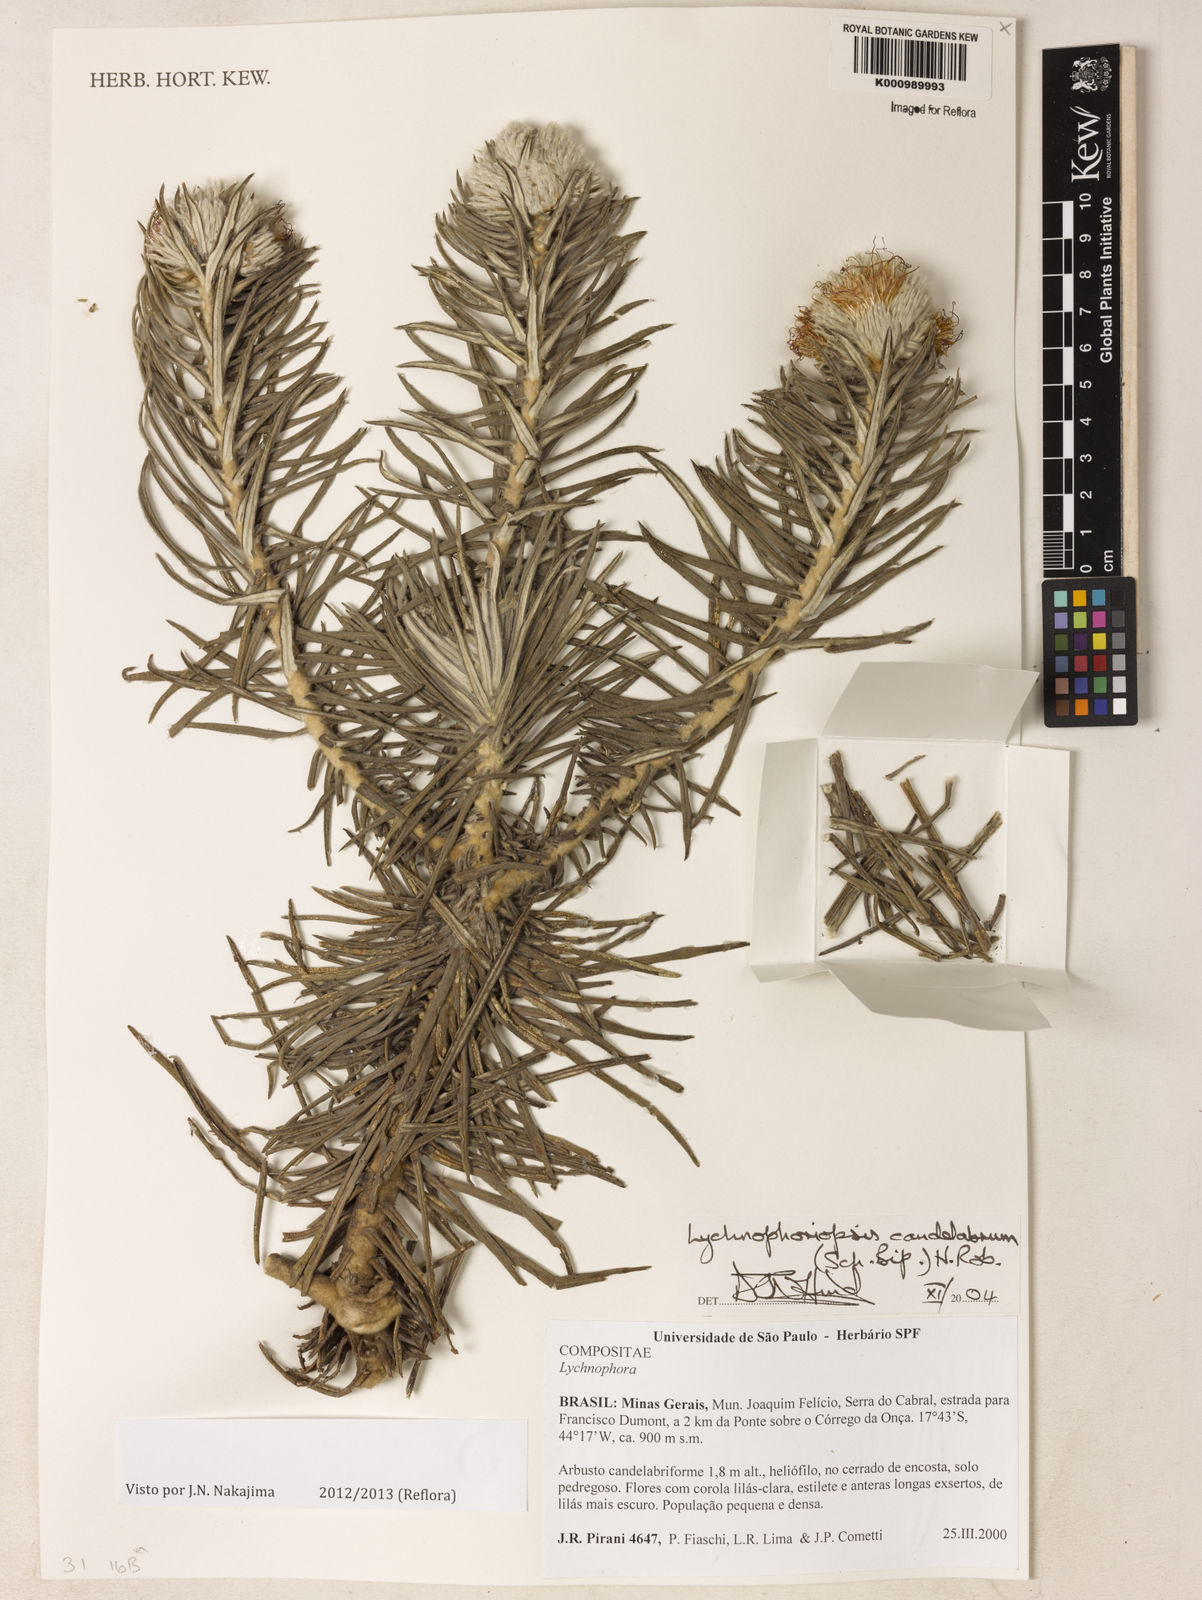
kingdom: Plantae
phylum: Tracheophyta
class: Magnoliopsida
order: Asterales
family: Asteraceae
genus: Lychnophora
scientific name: Lychnophora candelabrum
